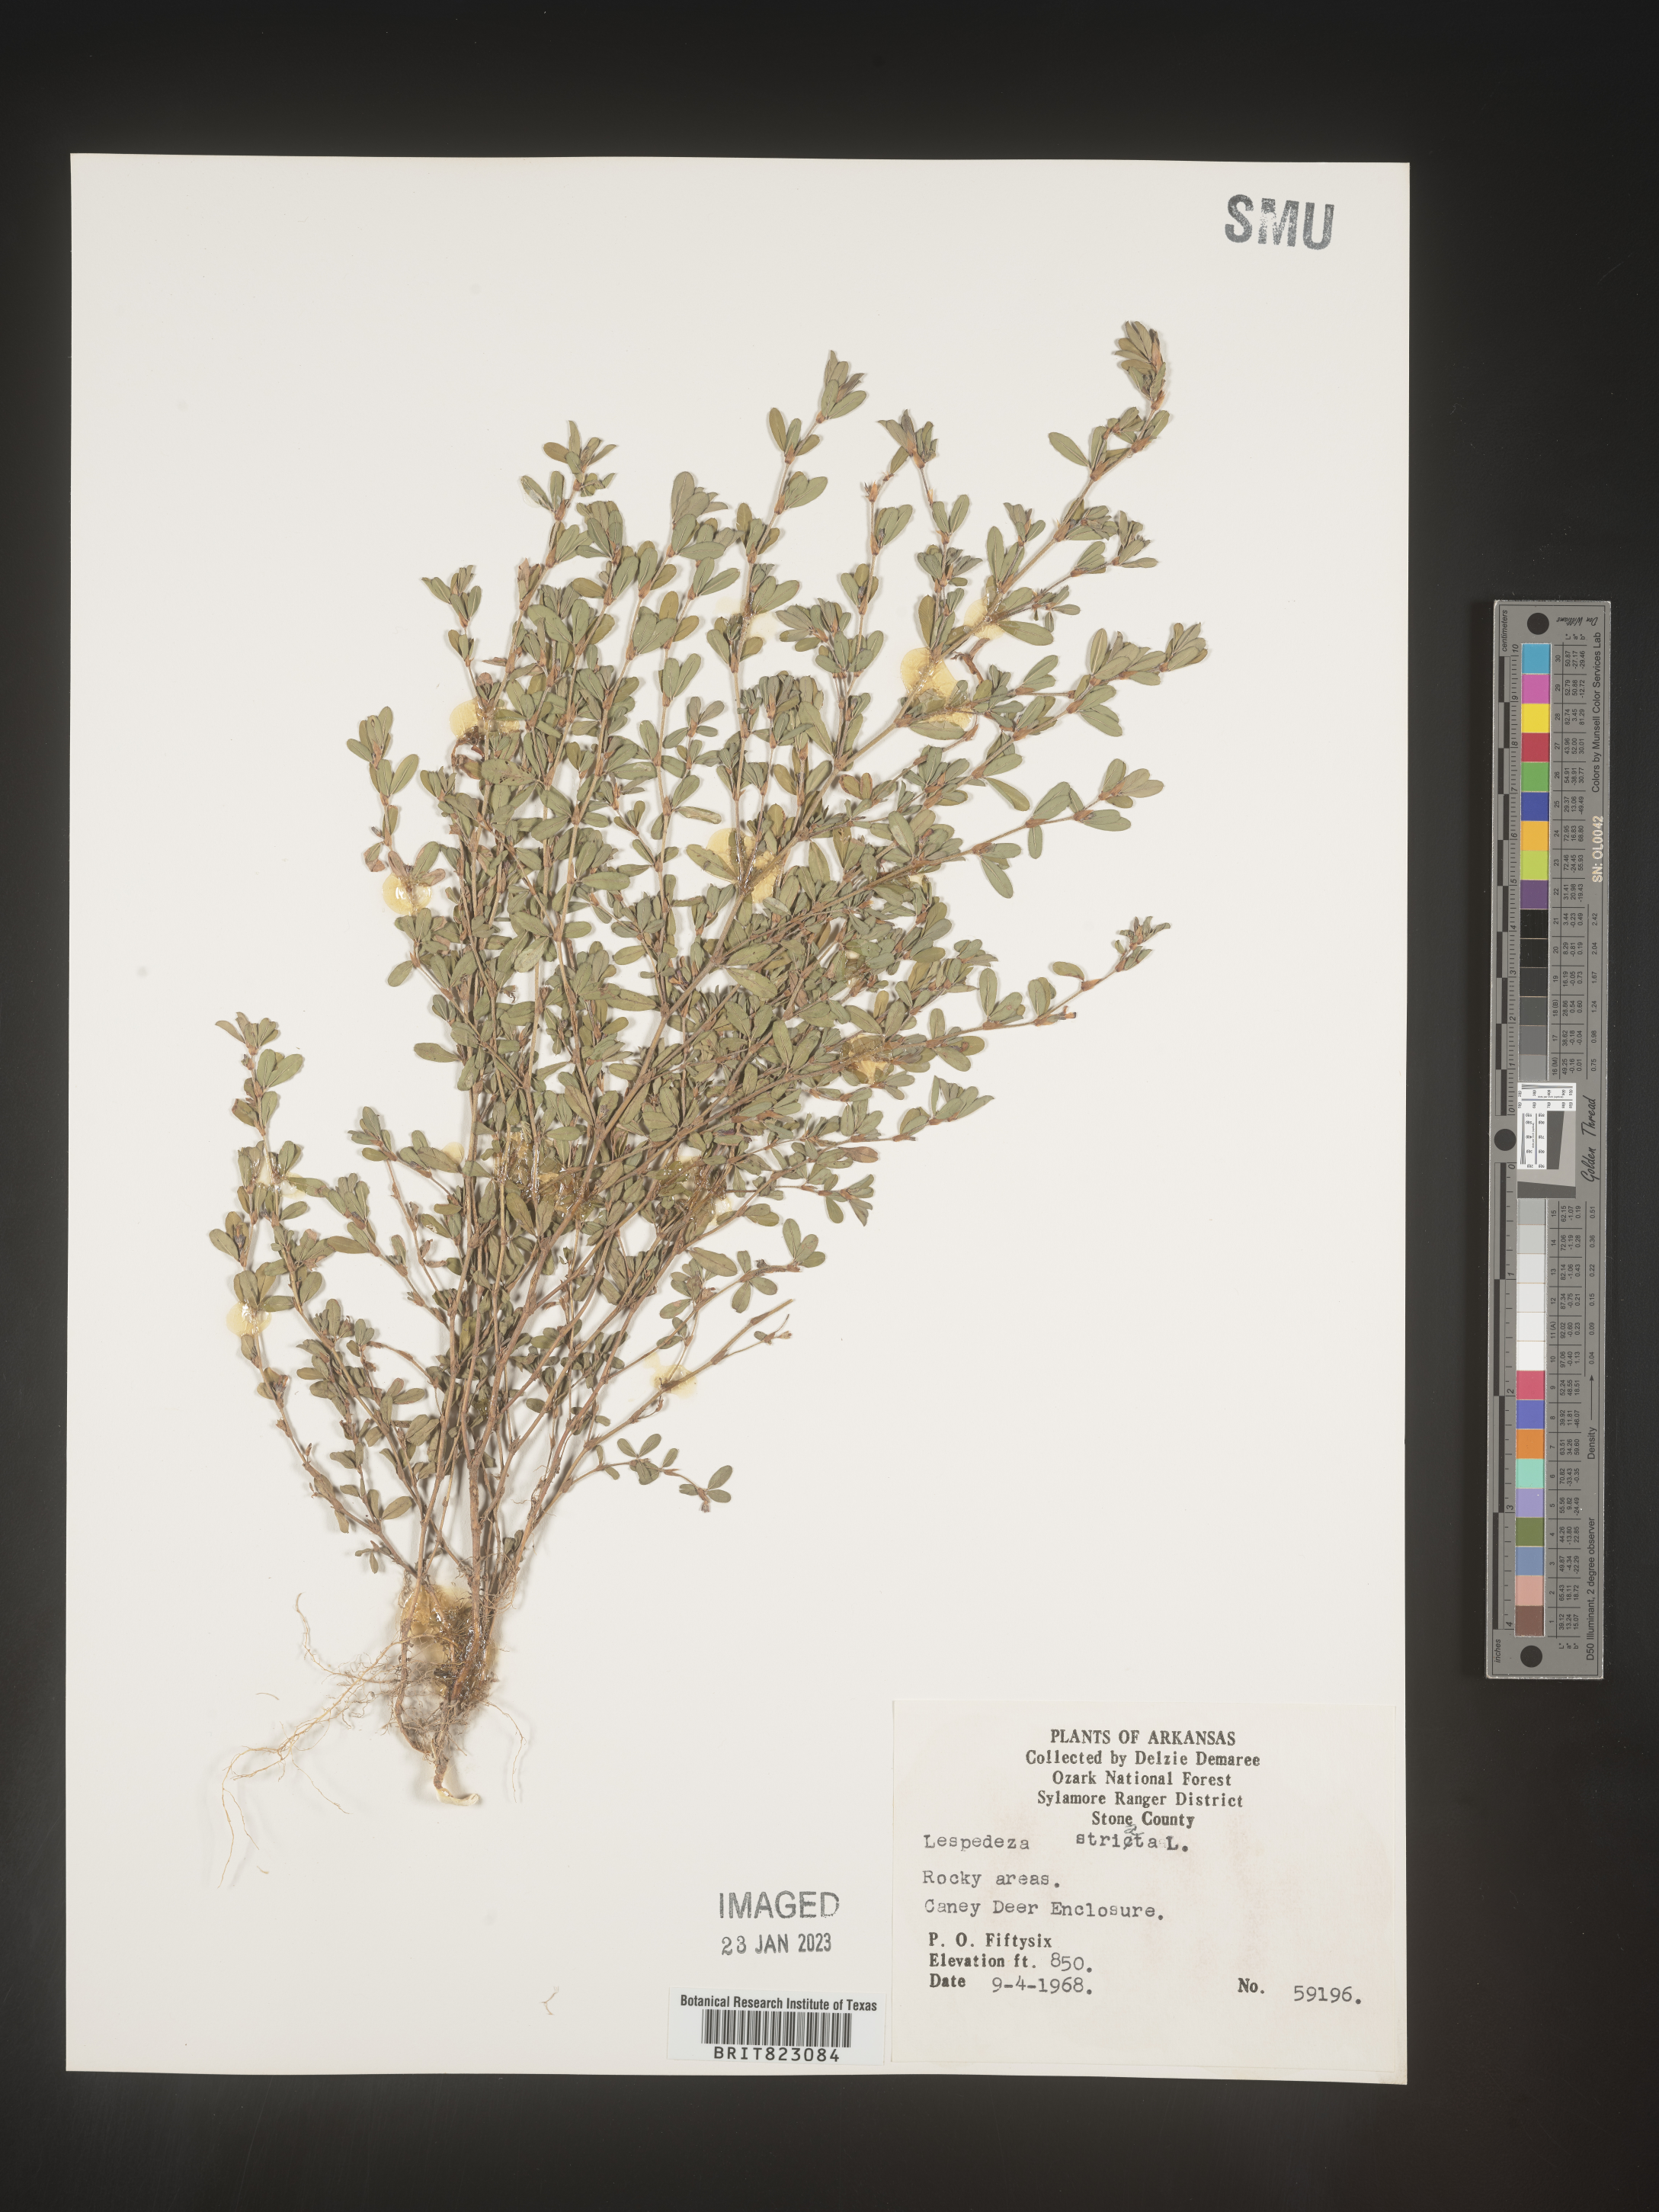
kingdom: Plantae
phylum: Tracheophyta
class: Magnoliopsida
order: Fabales
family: Fabaceae
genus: Kummerowia
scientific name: Kummerowia striata
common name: Japanese clover
